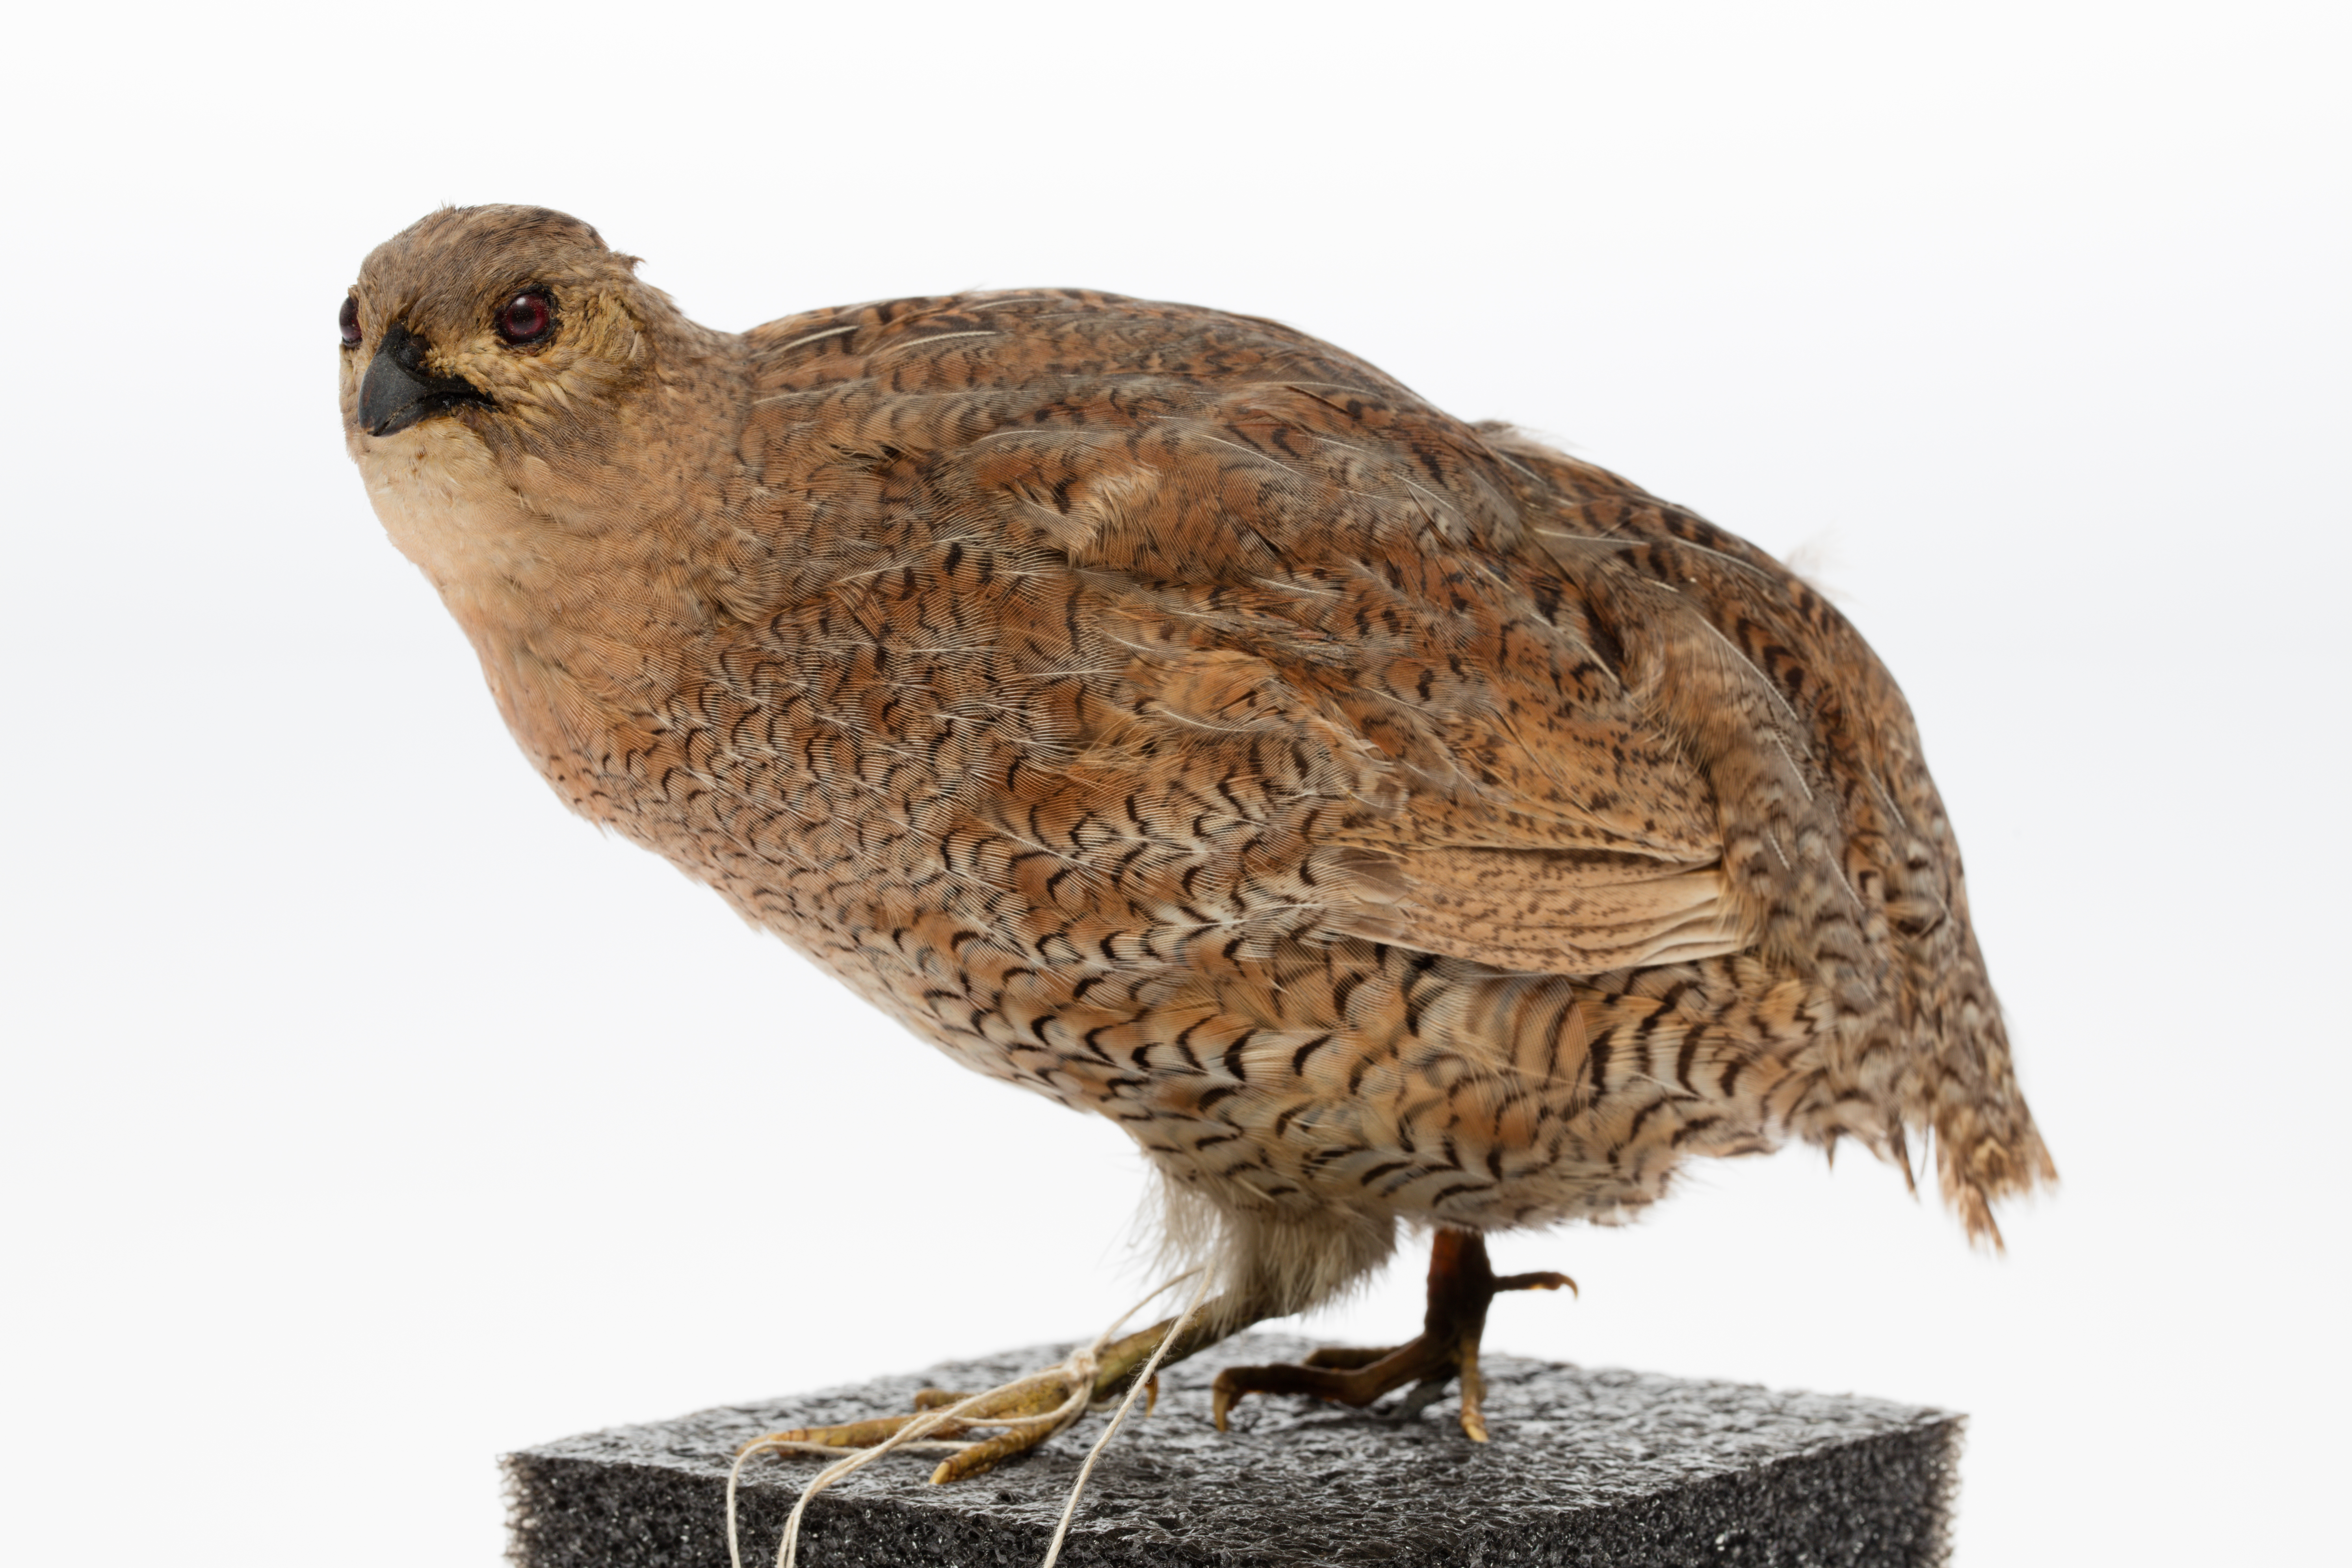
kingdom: Animalia
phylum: Chordata
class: Aves
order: Galliformes
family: Phasianidae
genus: Synoicus
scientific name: Synoicus ypsilophorus
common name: Brown quail
